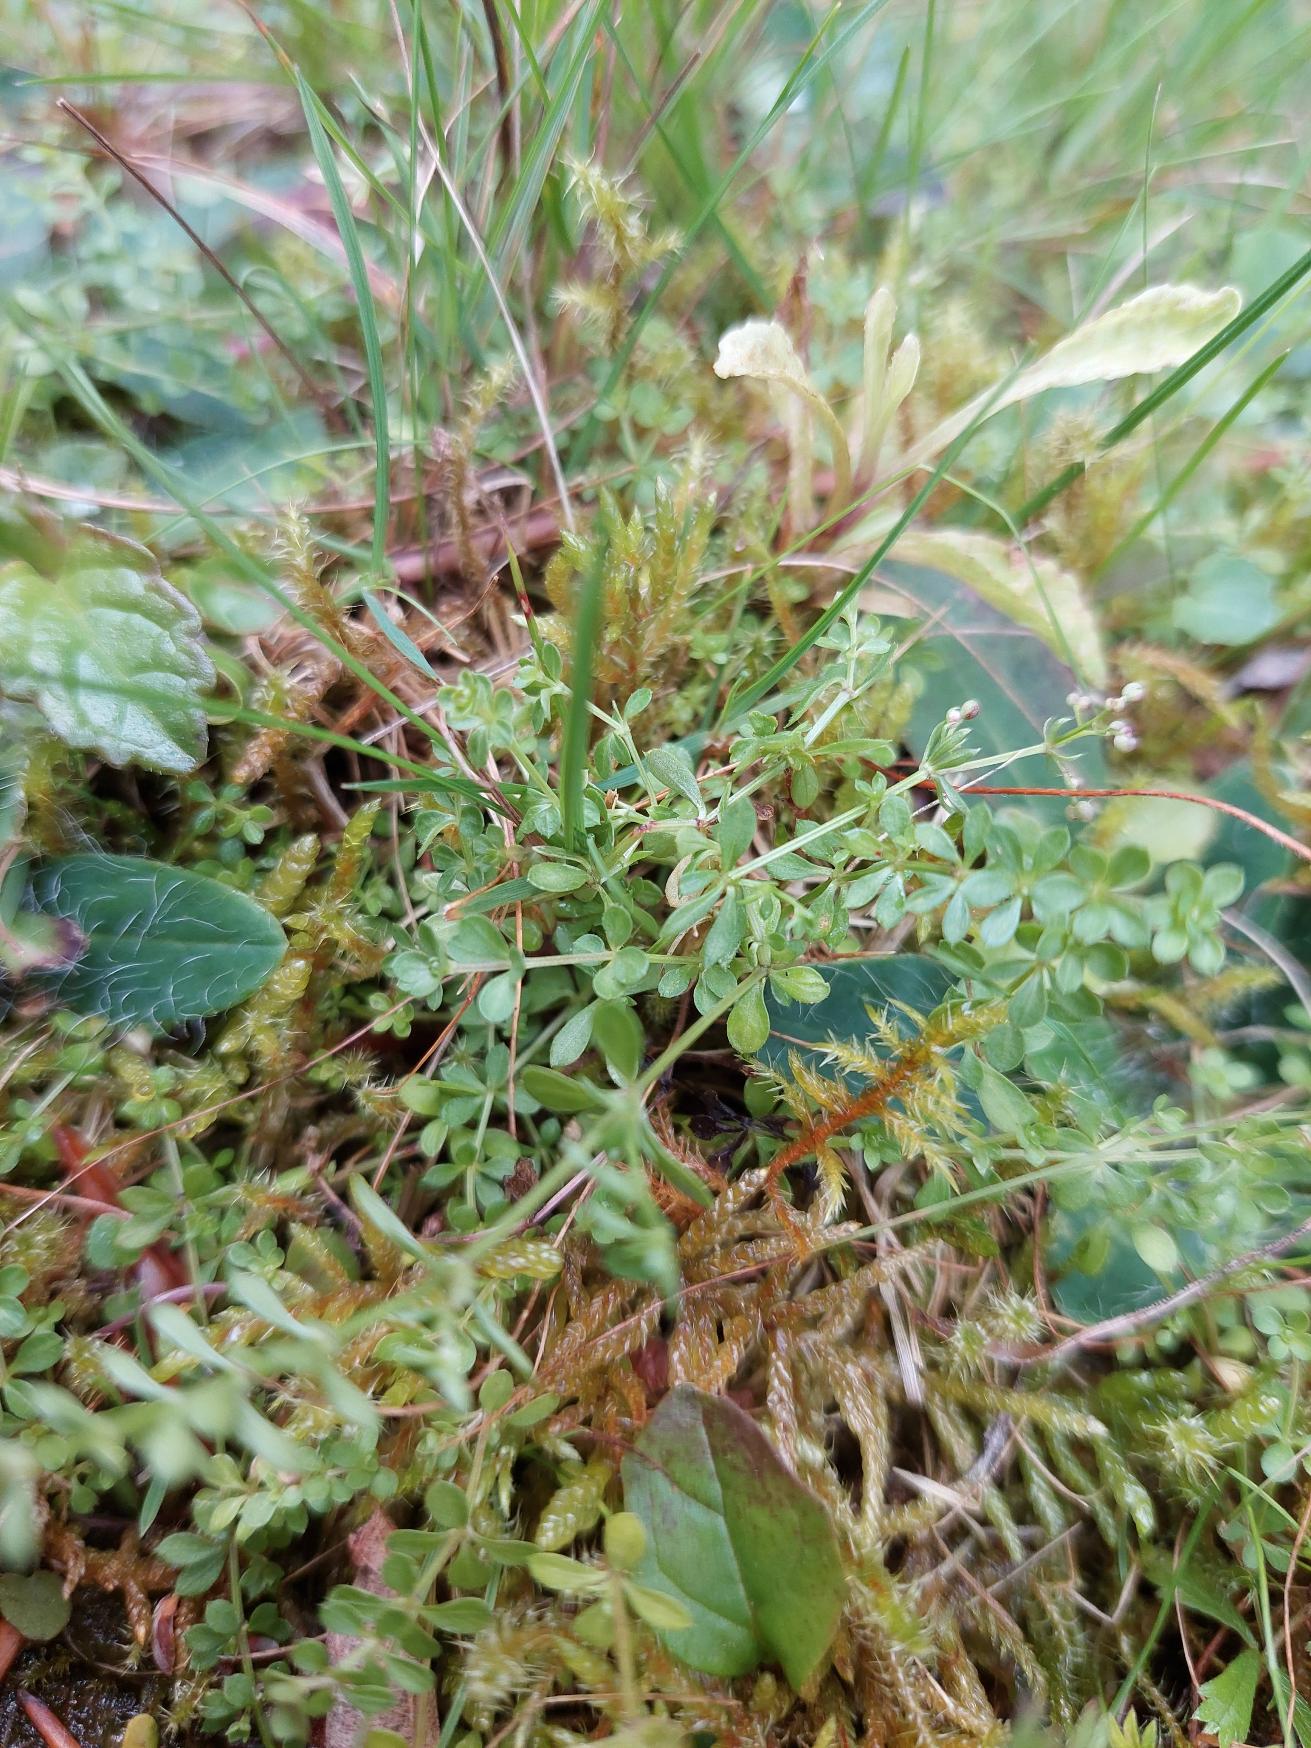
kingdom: Plantae
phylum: Tracheophyta
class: Magnoliopsida
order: Gentianales
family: Rubiaceae
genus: Galium
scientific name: Galium saxatile
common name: Lyng-snerre
